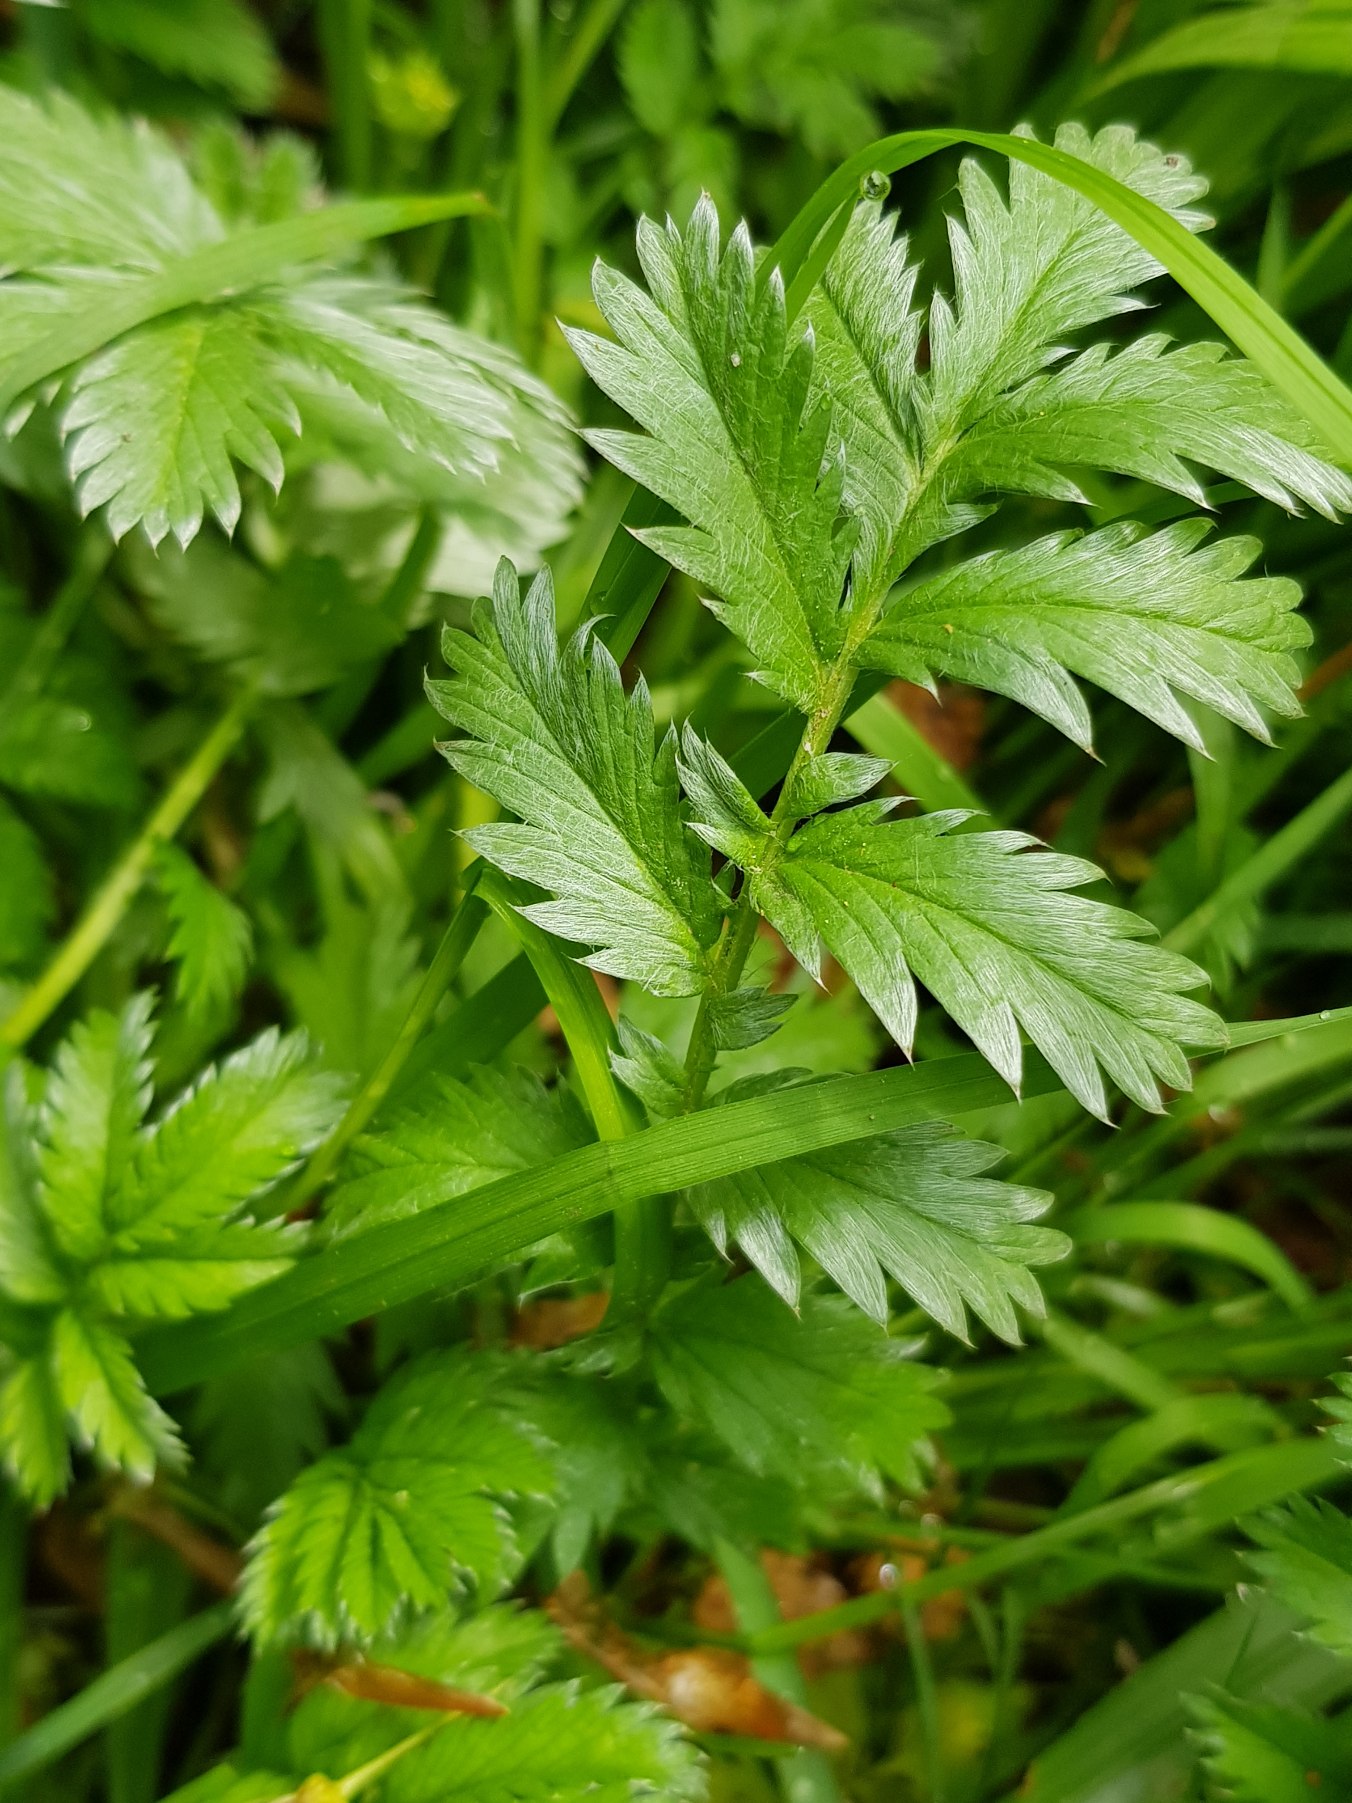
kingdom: Plantae
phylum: Tracheophyta
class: Magnoliopsida
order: Rosales
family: Rosaceae
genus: Argentina
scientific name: Argentina anserina
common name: Gåsepotentil
